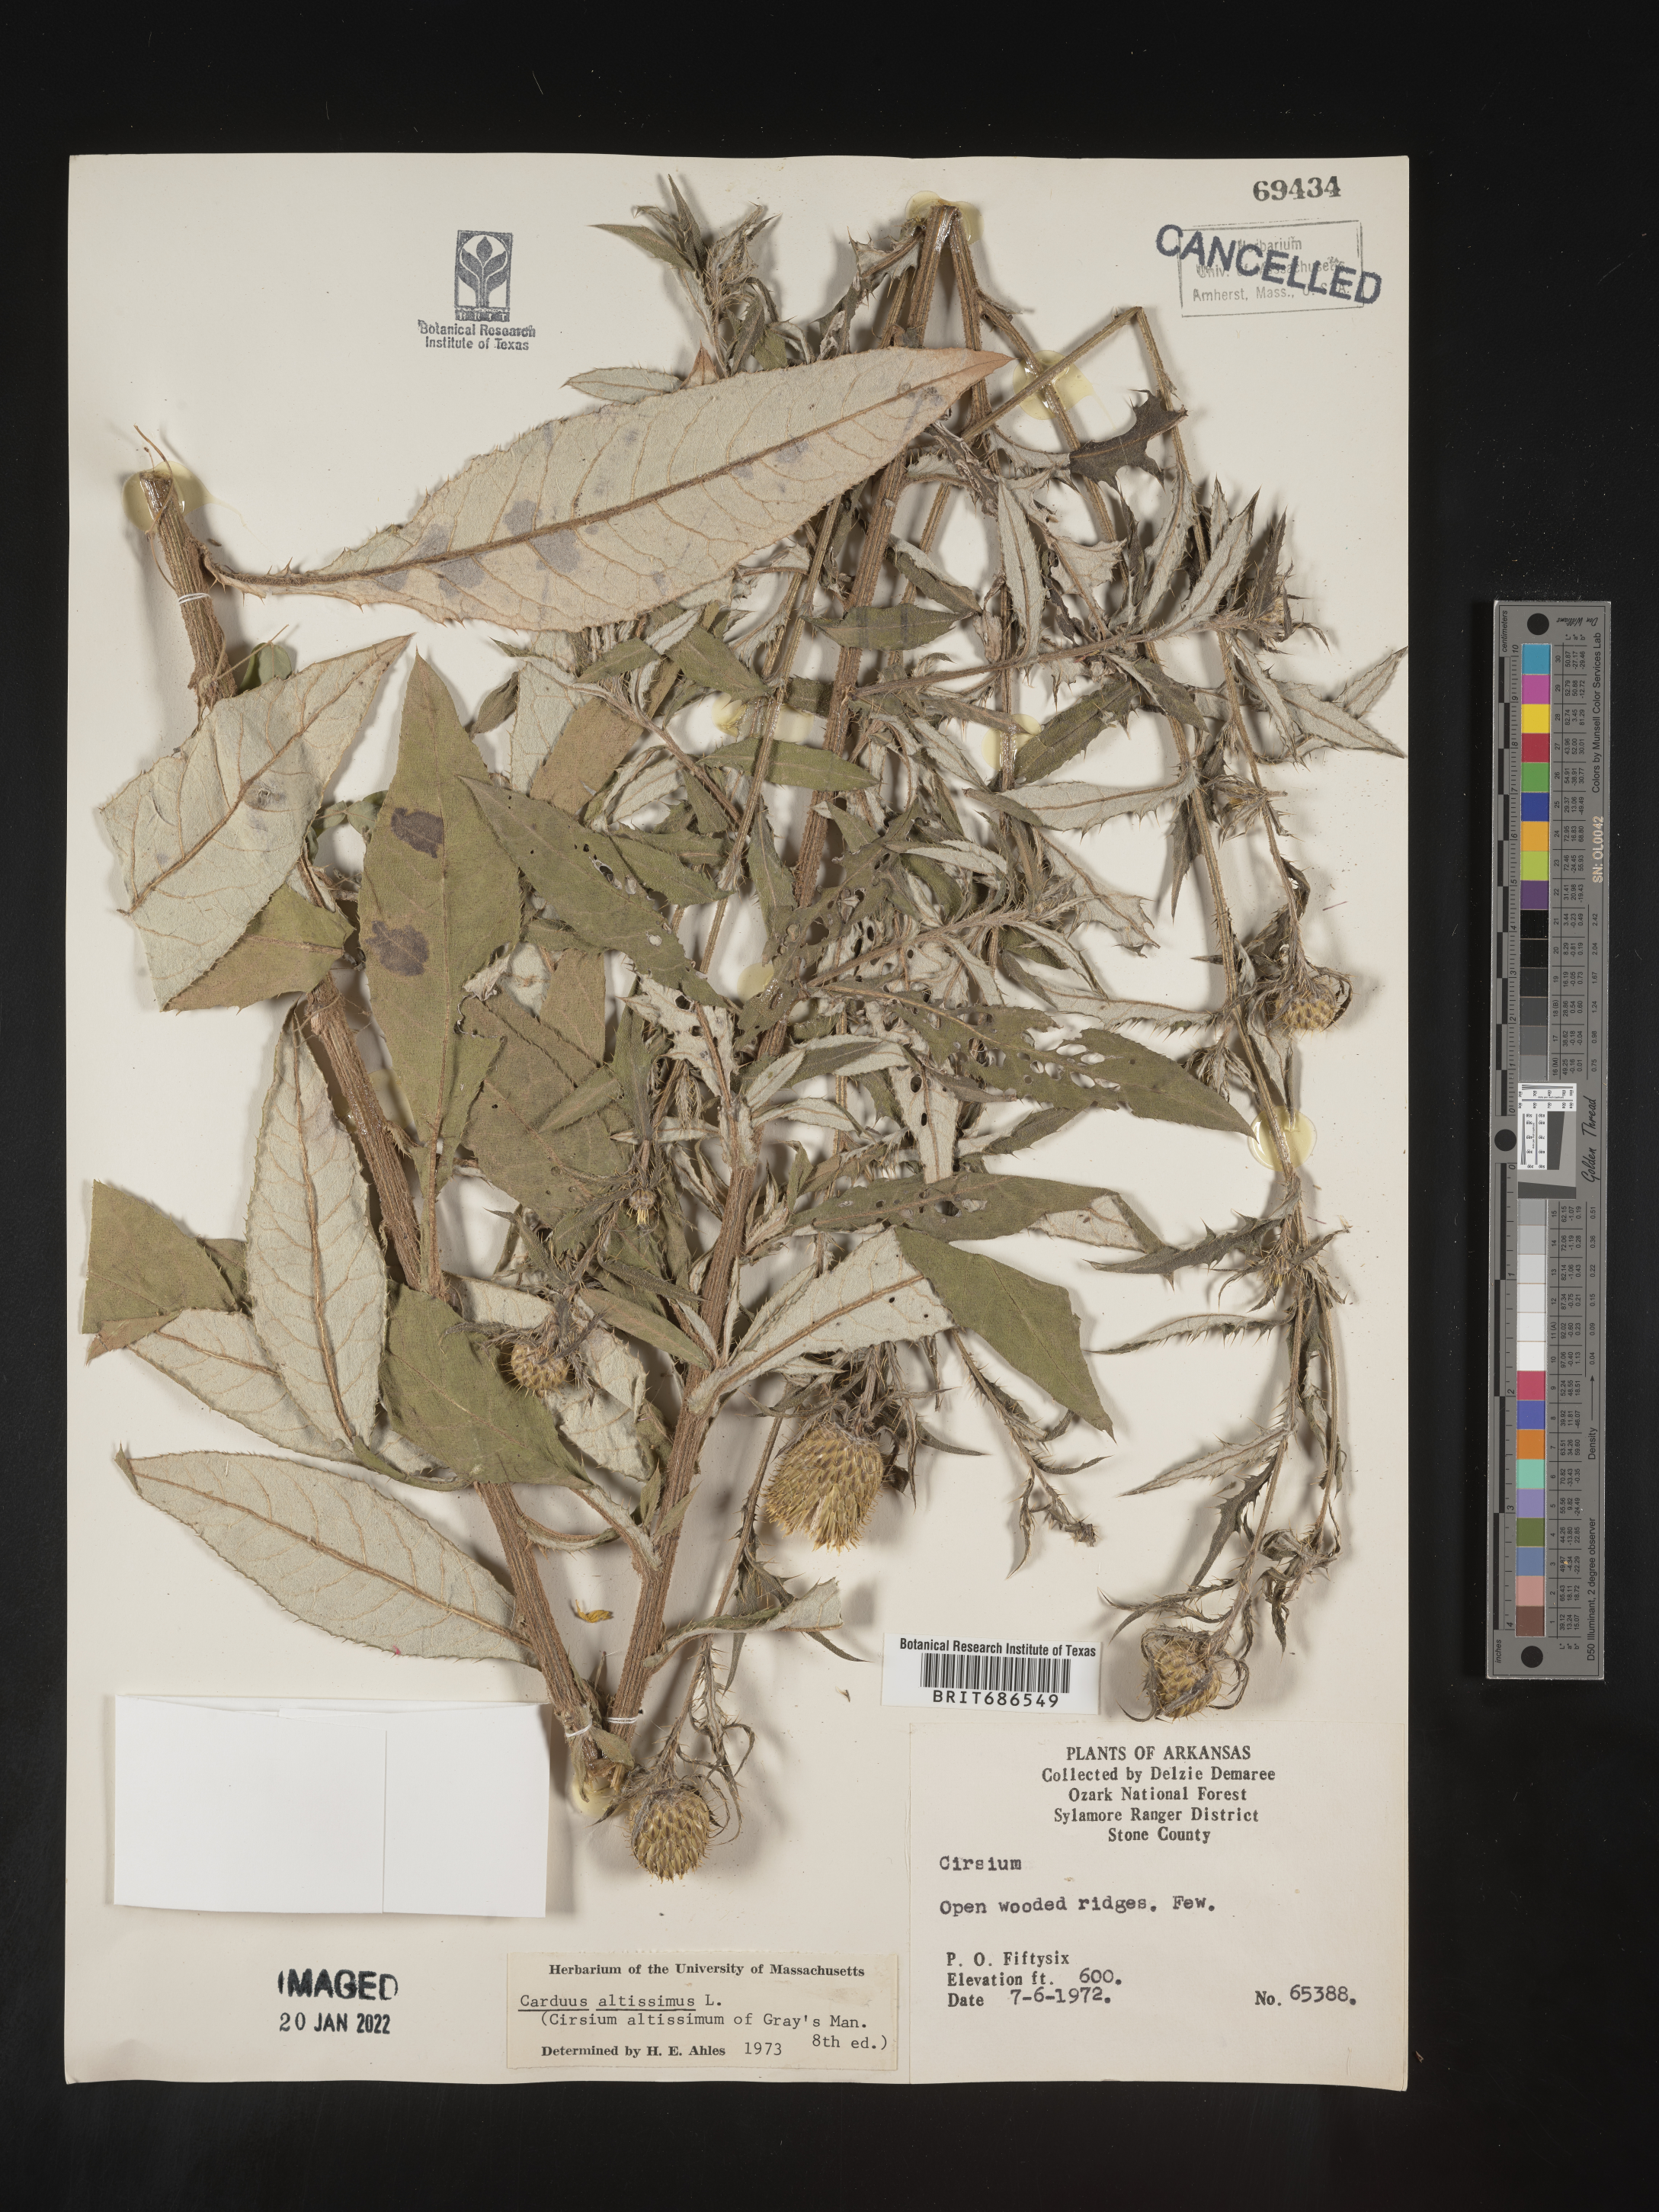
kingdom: Plantae
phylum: Tracheophyta
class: Magnoliopsida
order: Asterales
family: Asteraceae
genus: Cirsium
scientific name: Cirsium palustre
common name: Marsh thistle
